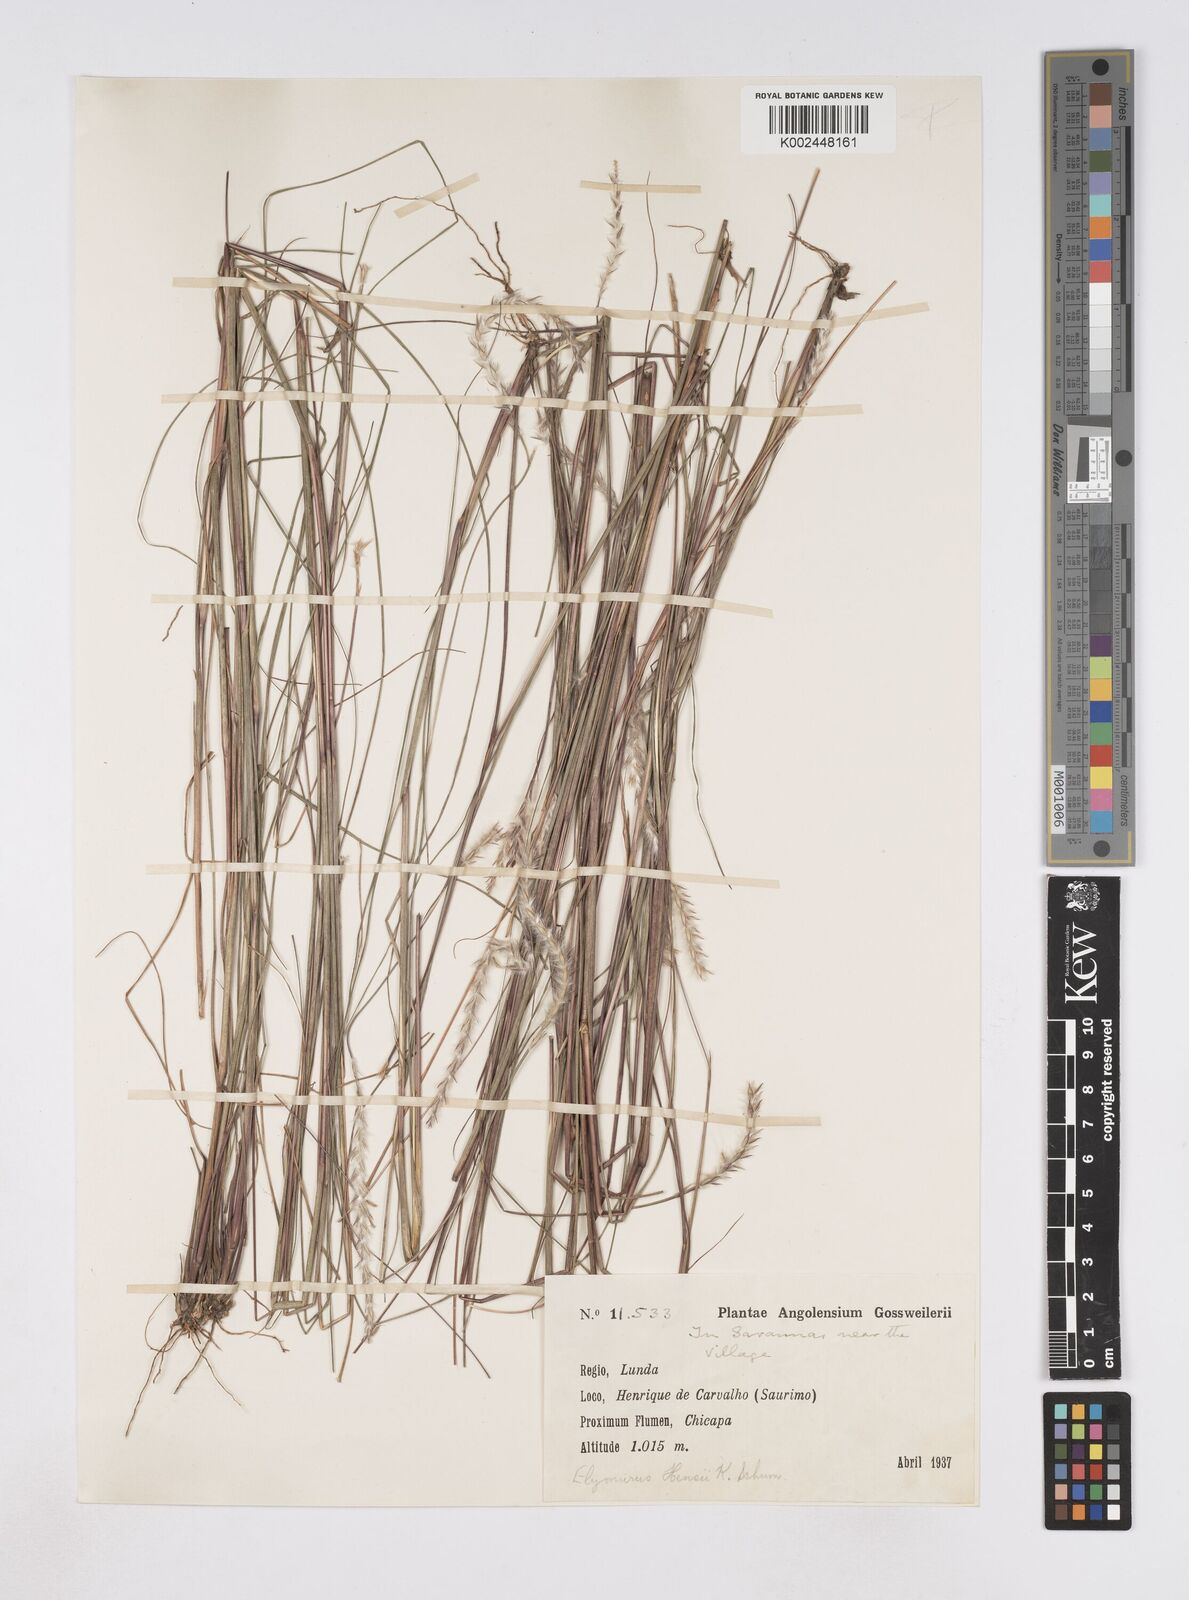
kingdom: Plantae
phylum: Tracheophyta
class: Liliopsida
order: Poales
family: Poaceae
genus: Elionurus
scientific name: Elionurus hensii
